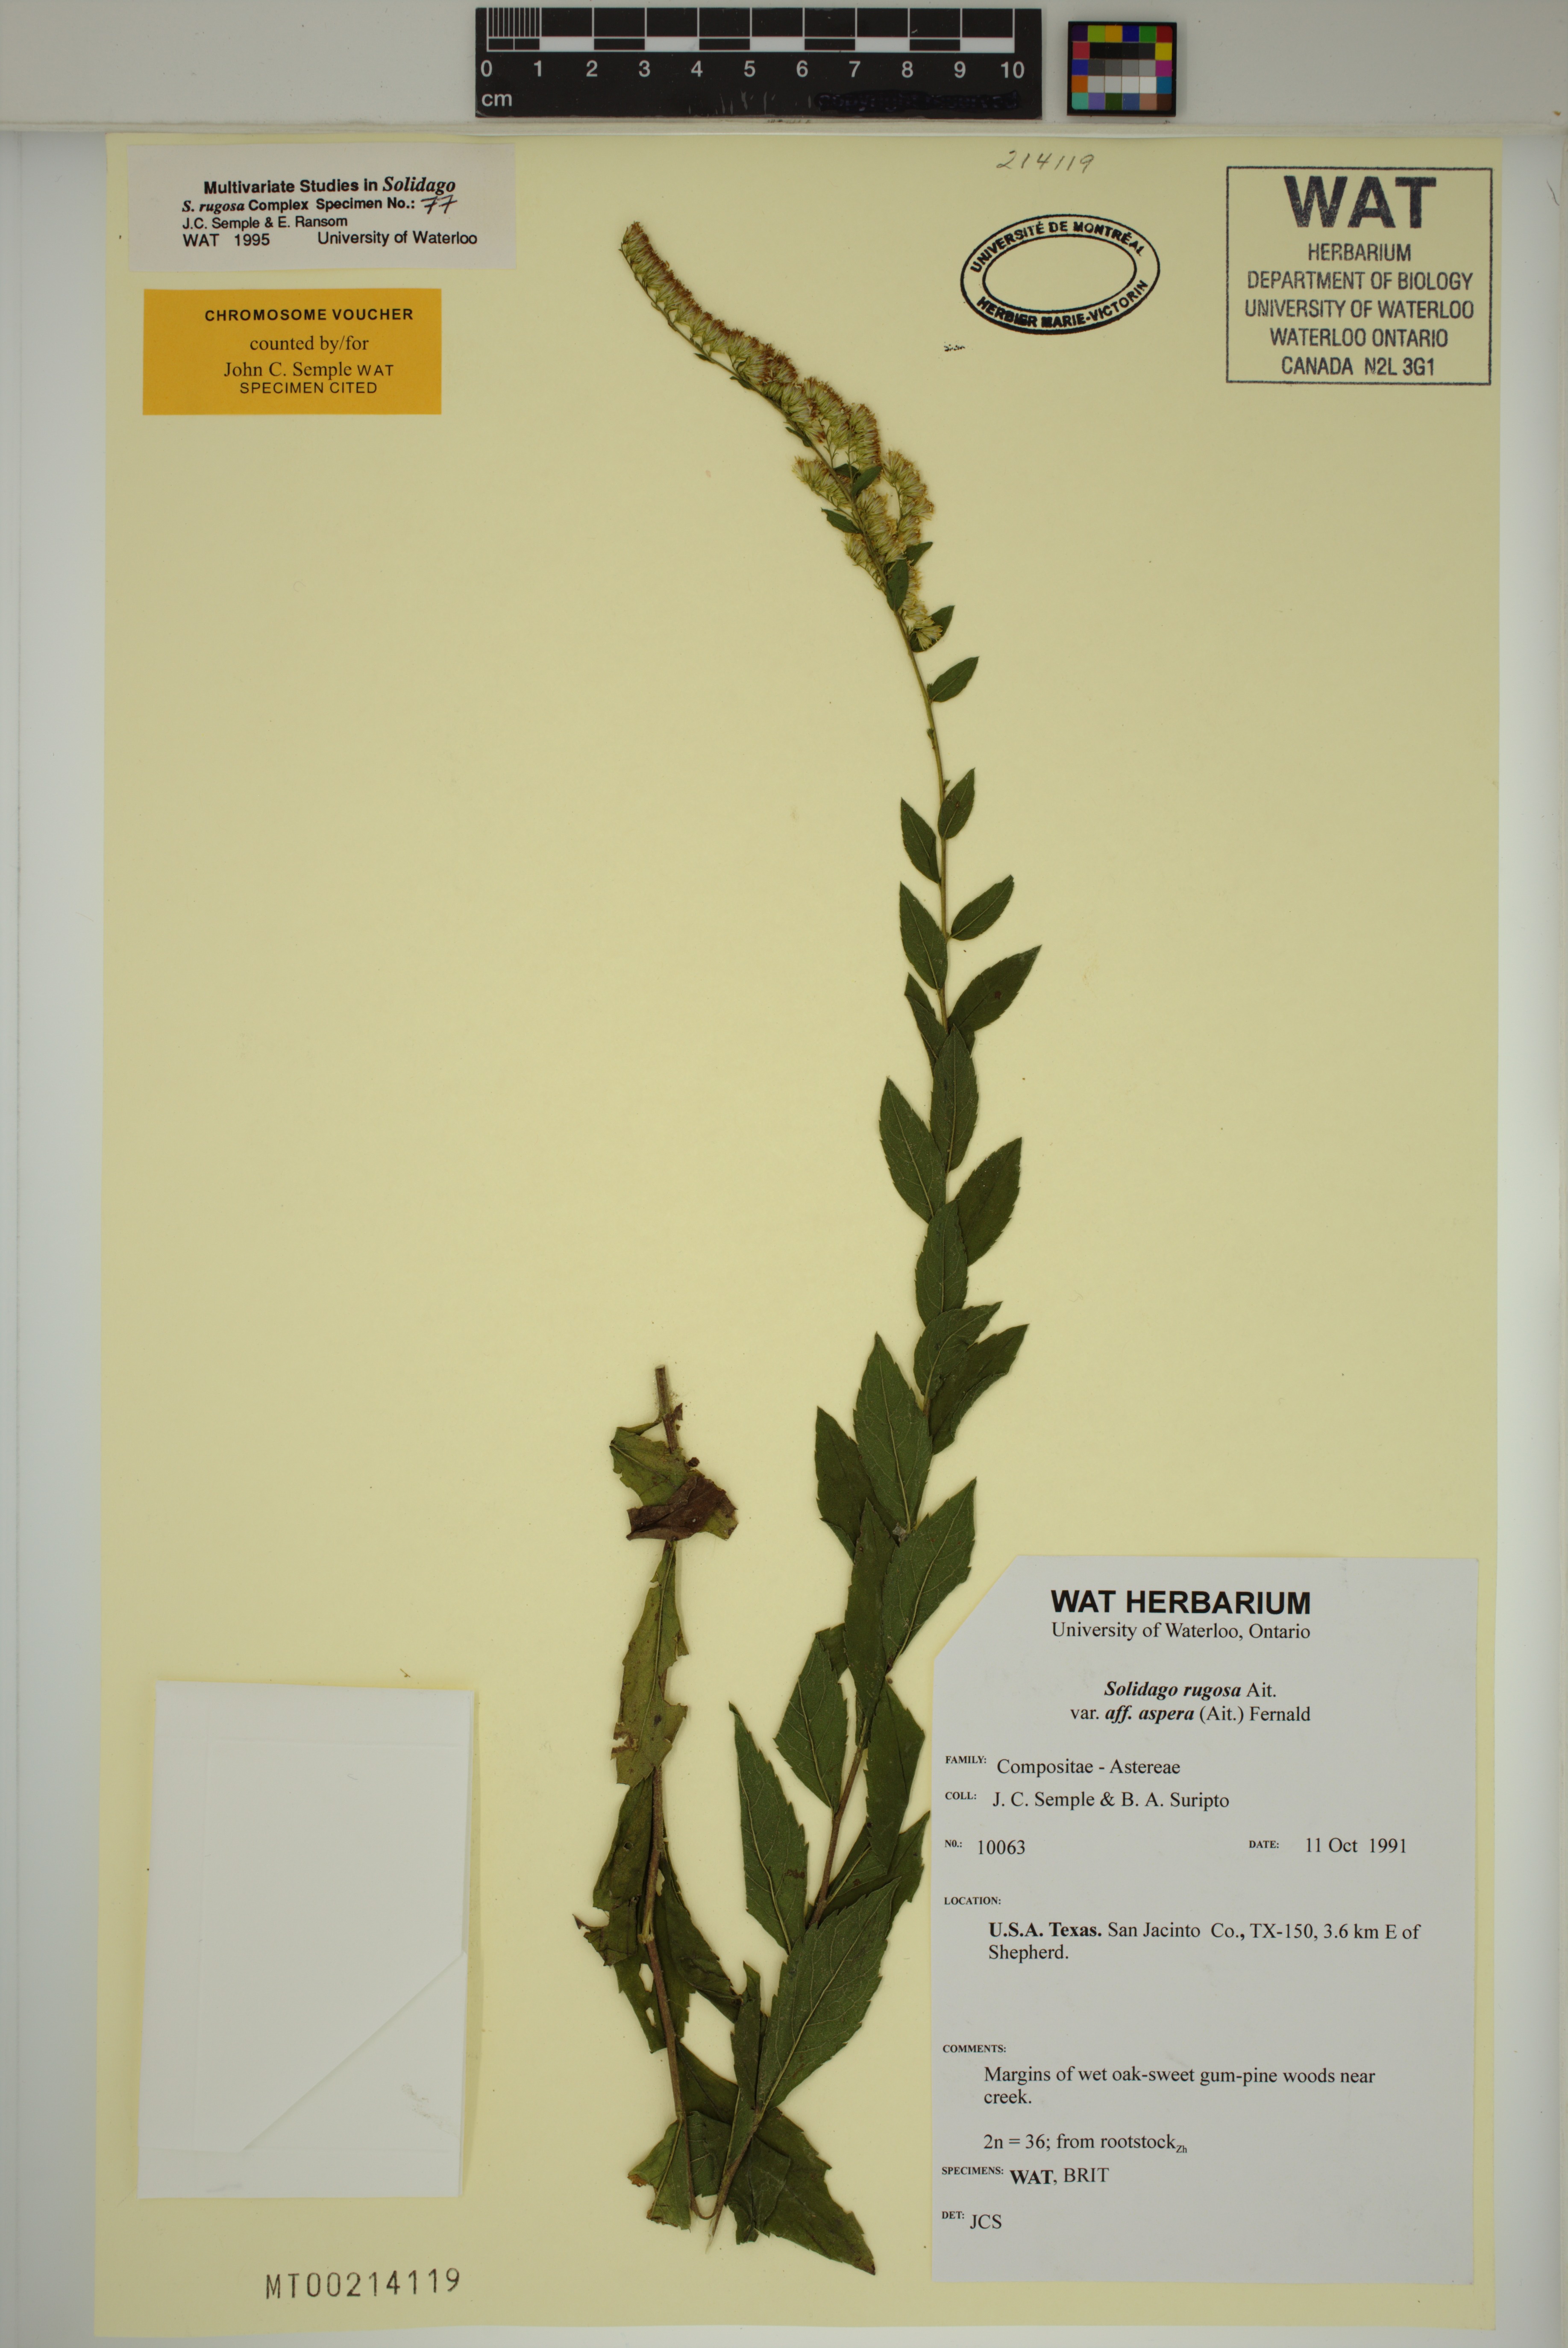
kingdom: Plantae
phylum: Tracheophyta
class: Magnoliopsida
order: Asterales
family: Asteraceae
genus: Solidago
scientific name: Solidago rugosa
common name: Rough-stemmed goldenrod
